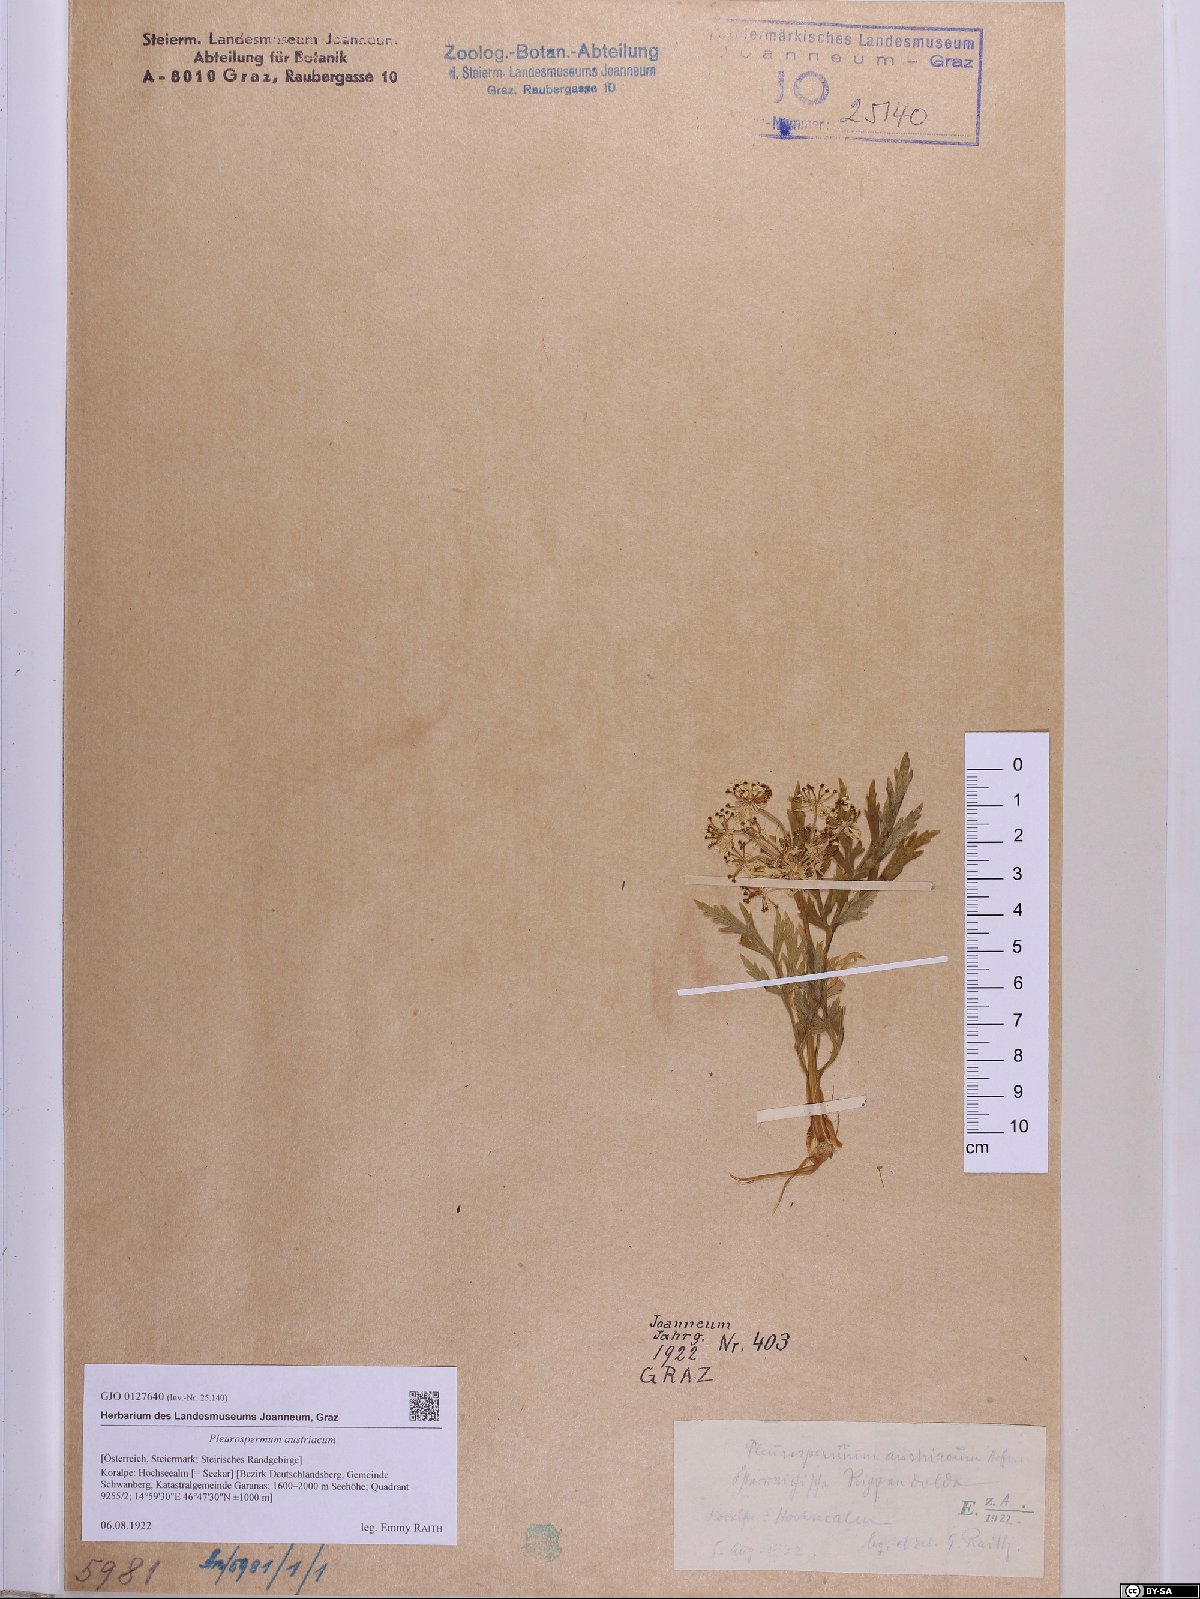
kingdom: Plantae
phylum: Tracheophyta
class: Magnoliopsida
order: Apiales
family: Apiaceae
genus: Pleurospermum
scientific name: Pleurospermum austriacum
